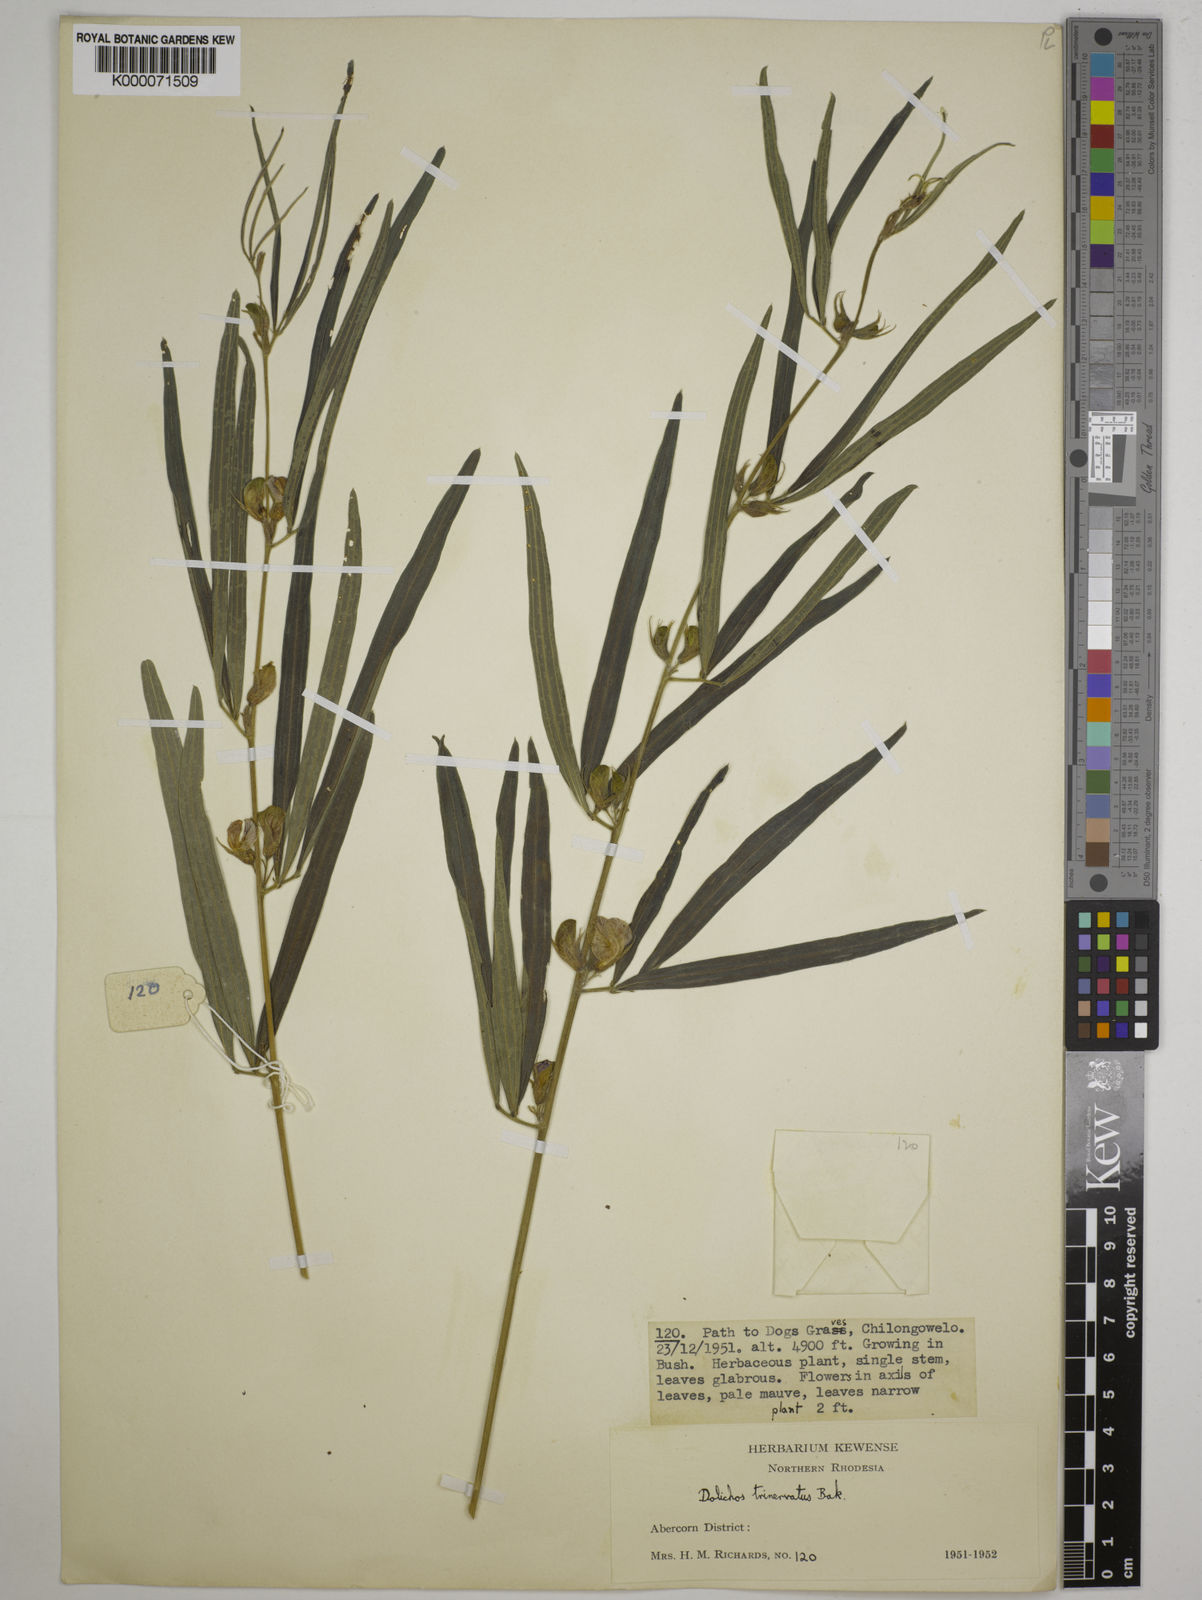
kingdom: Plantae
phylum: Tracheophyta
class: Magnoliopsida
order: Fabales
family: Fabaceae
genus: Dolichos
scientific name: Dolichos trinervatus
